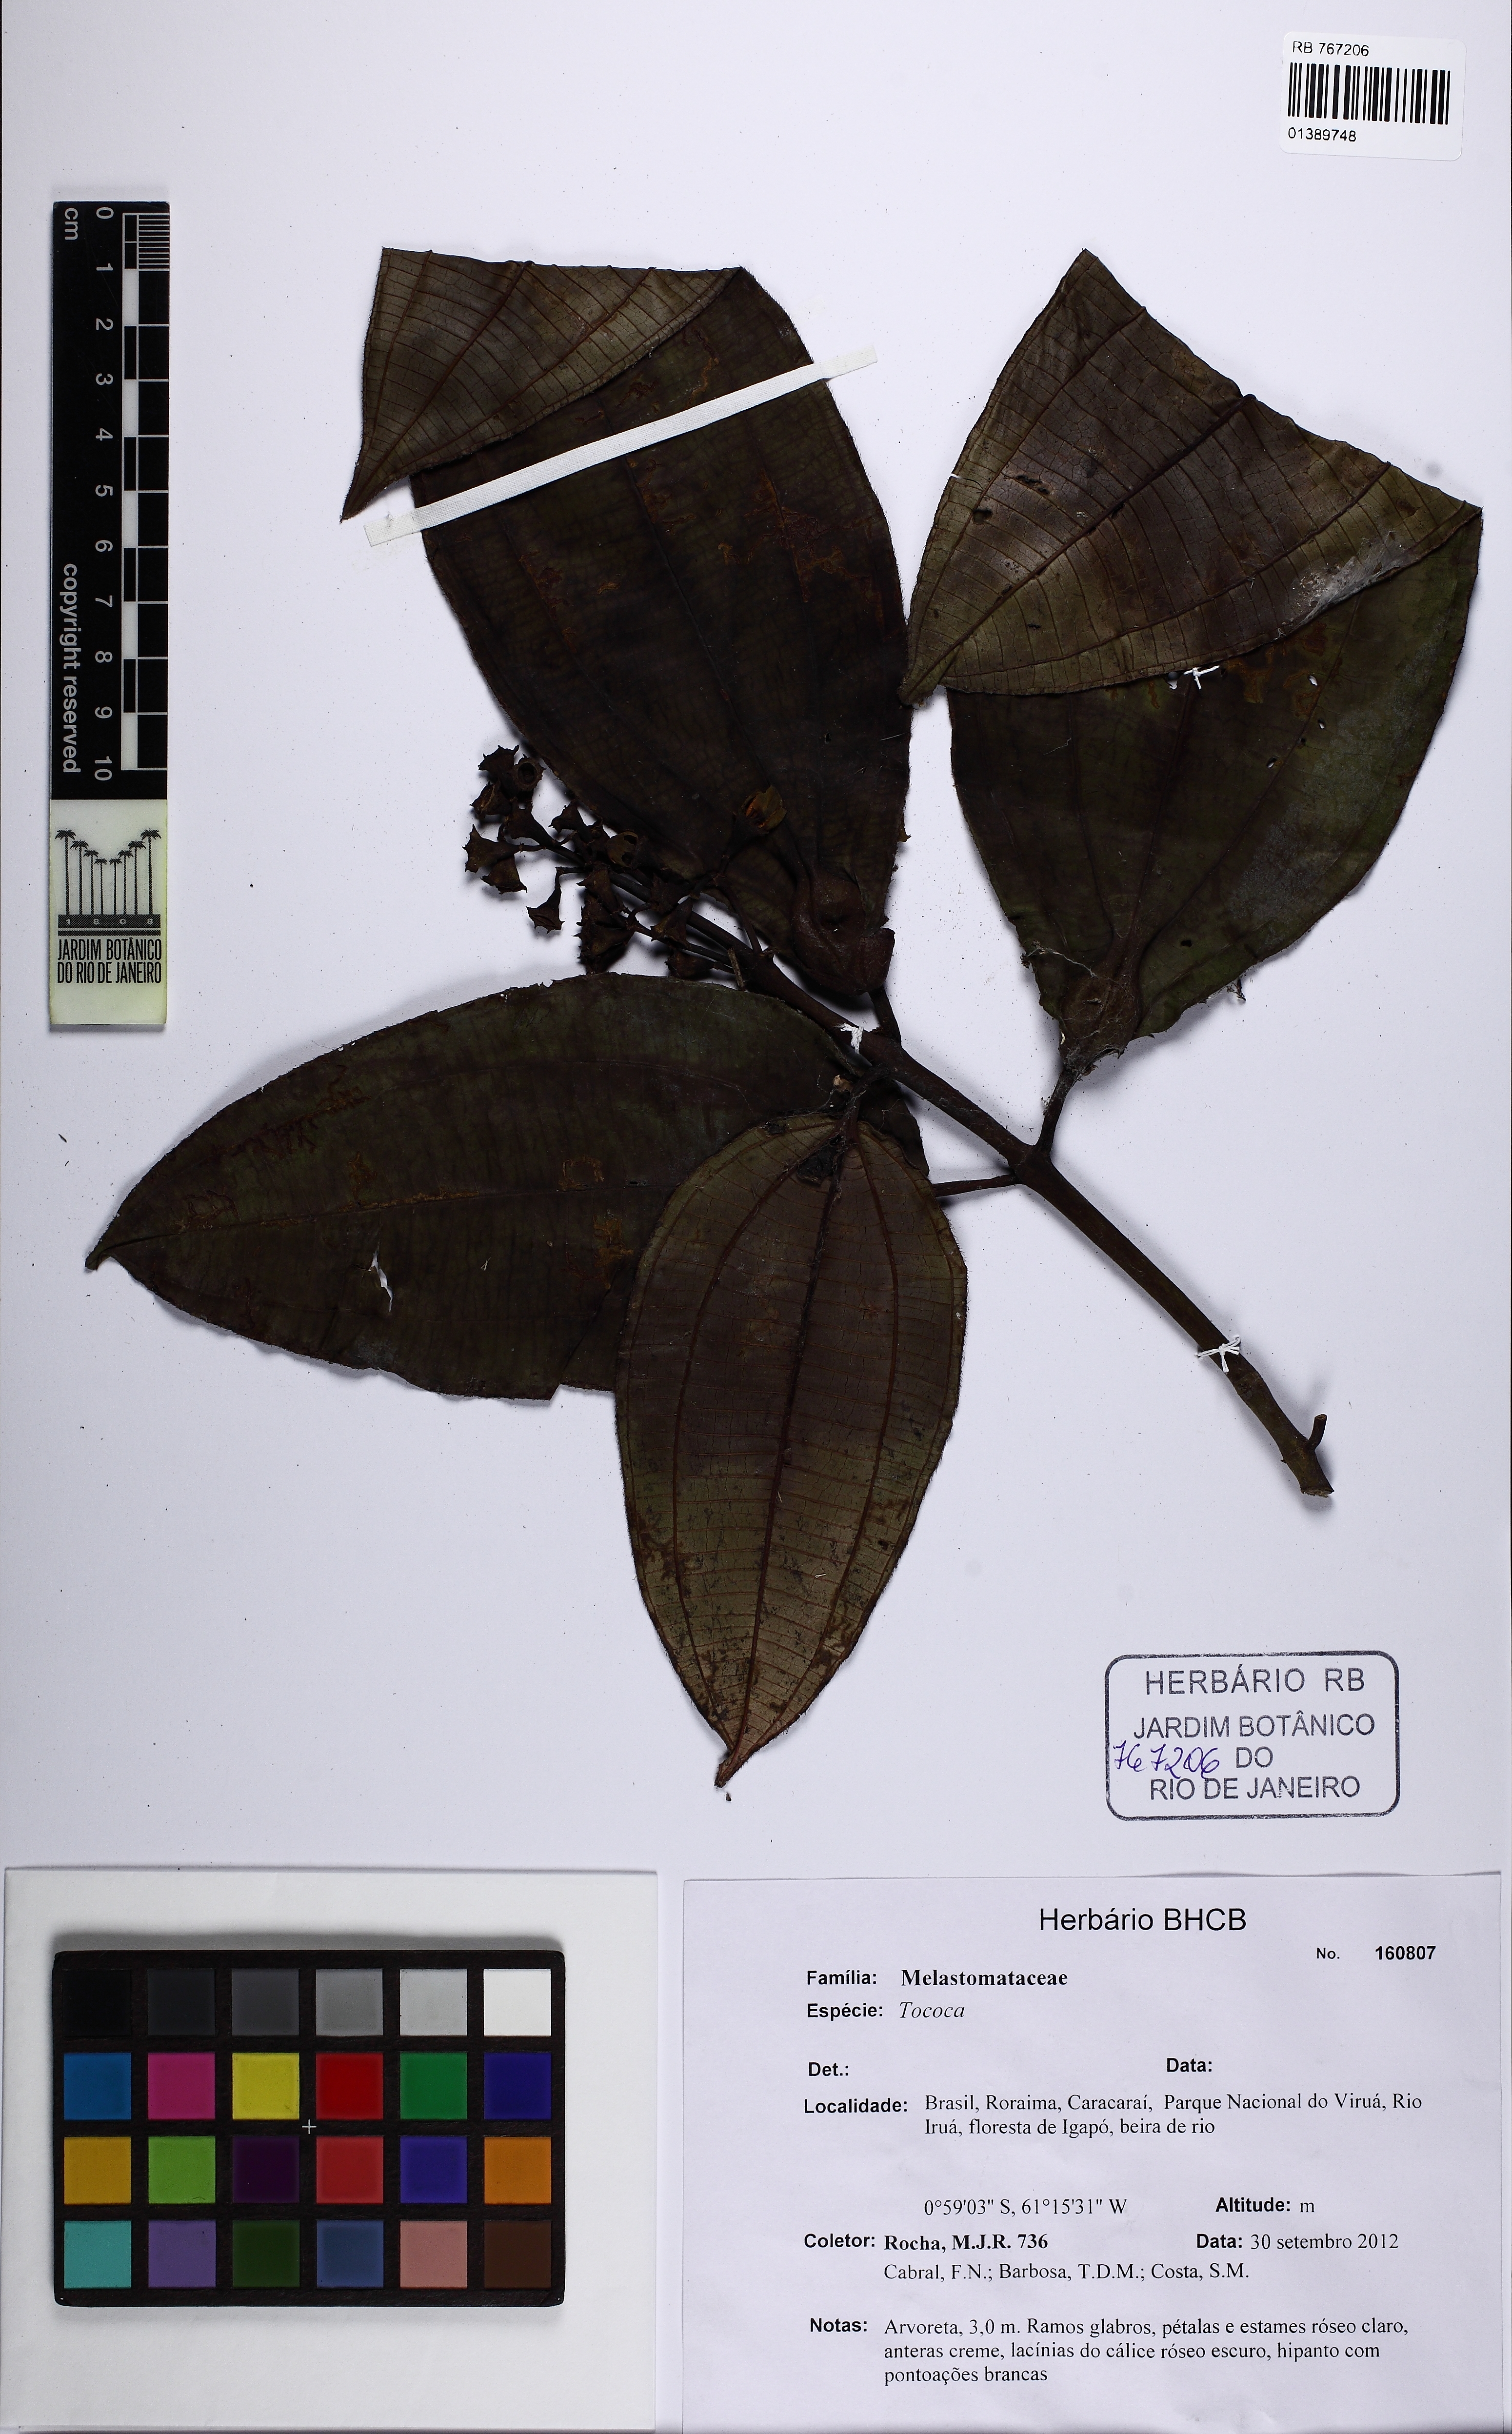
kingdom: Plantae
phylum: Tracheophyta
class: Magnoliopsida
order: Myrtales
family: Melastomataceae
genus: Miconia
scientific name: Miconia
